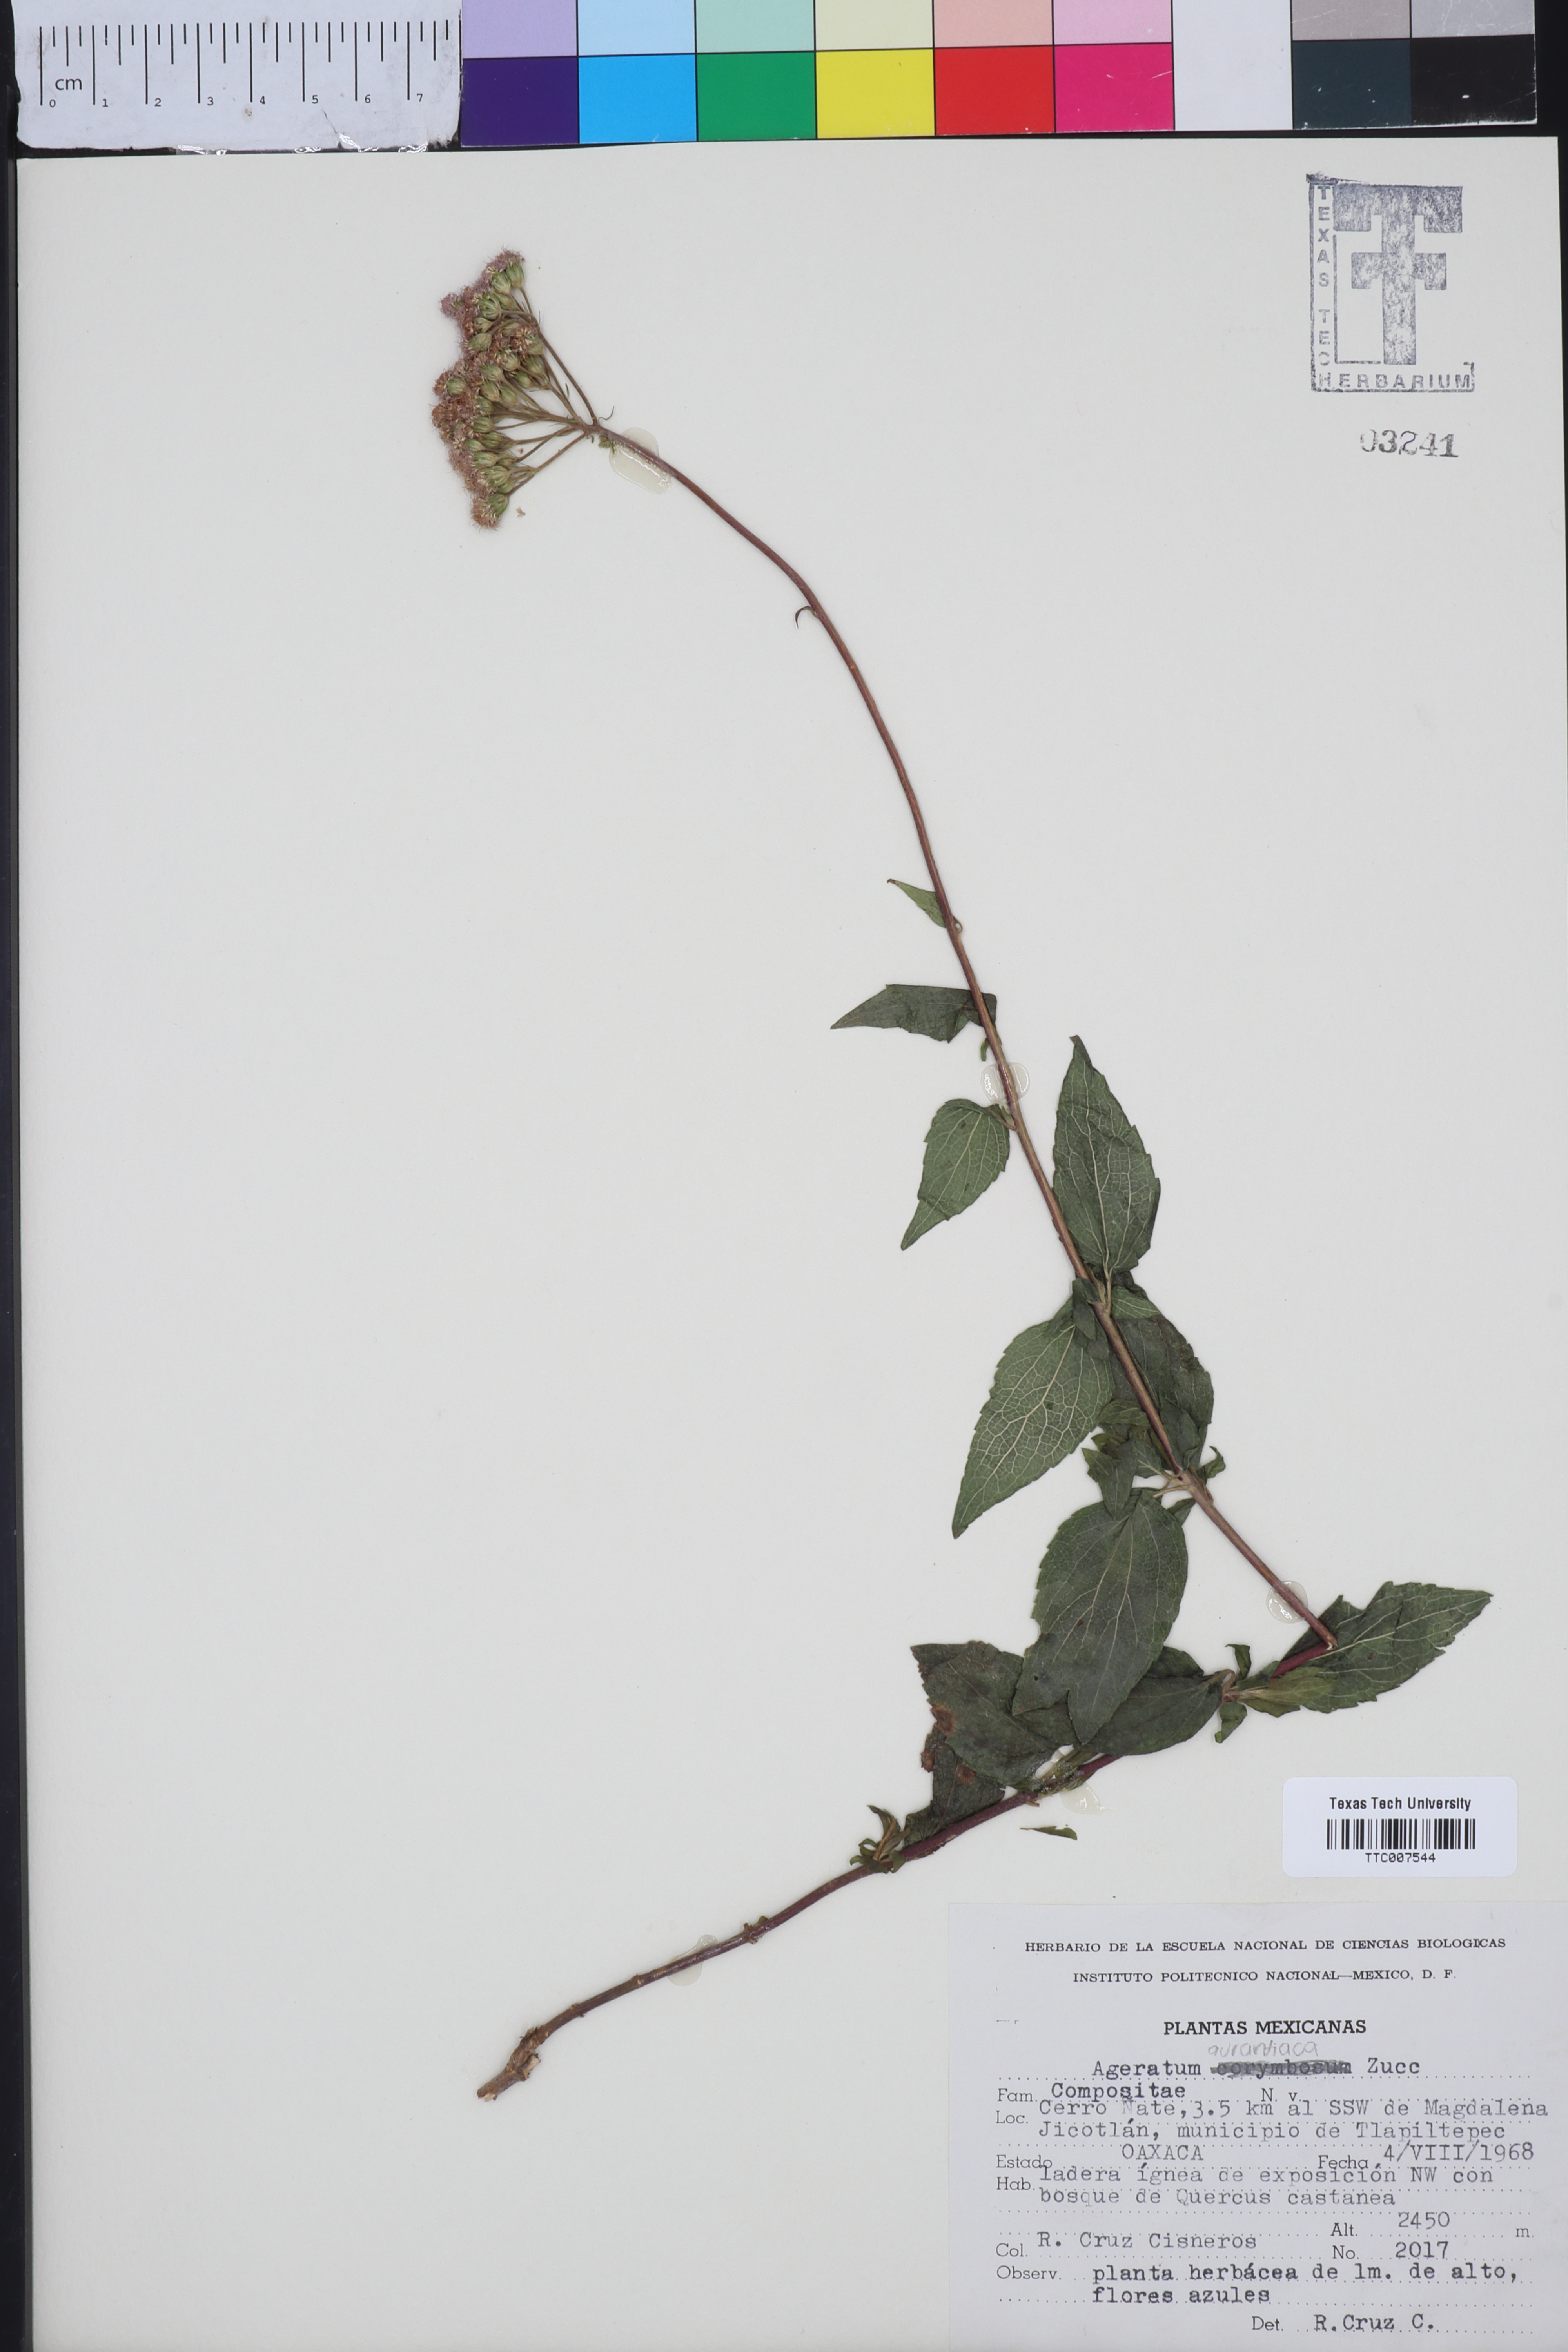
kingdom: Plantae
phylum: Tracheophyta
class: Magnoliopsida
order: Asterales
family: Asteraceae
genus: Ageratum
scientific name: Ageratum corymbosum
